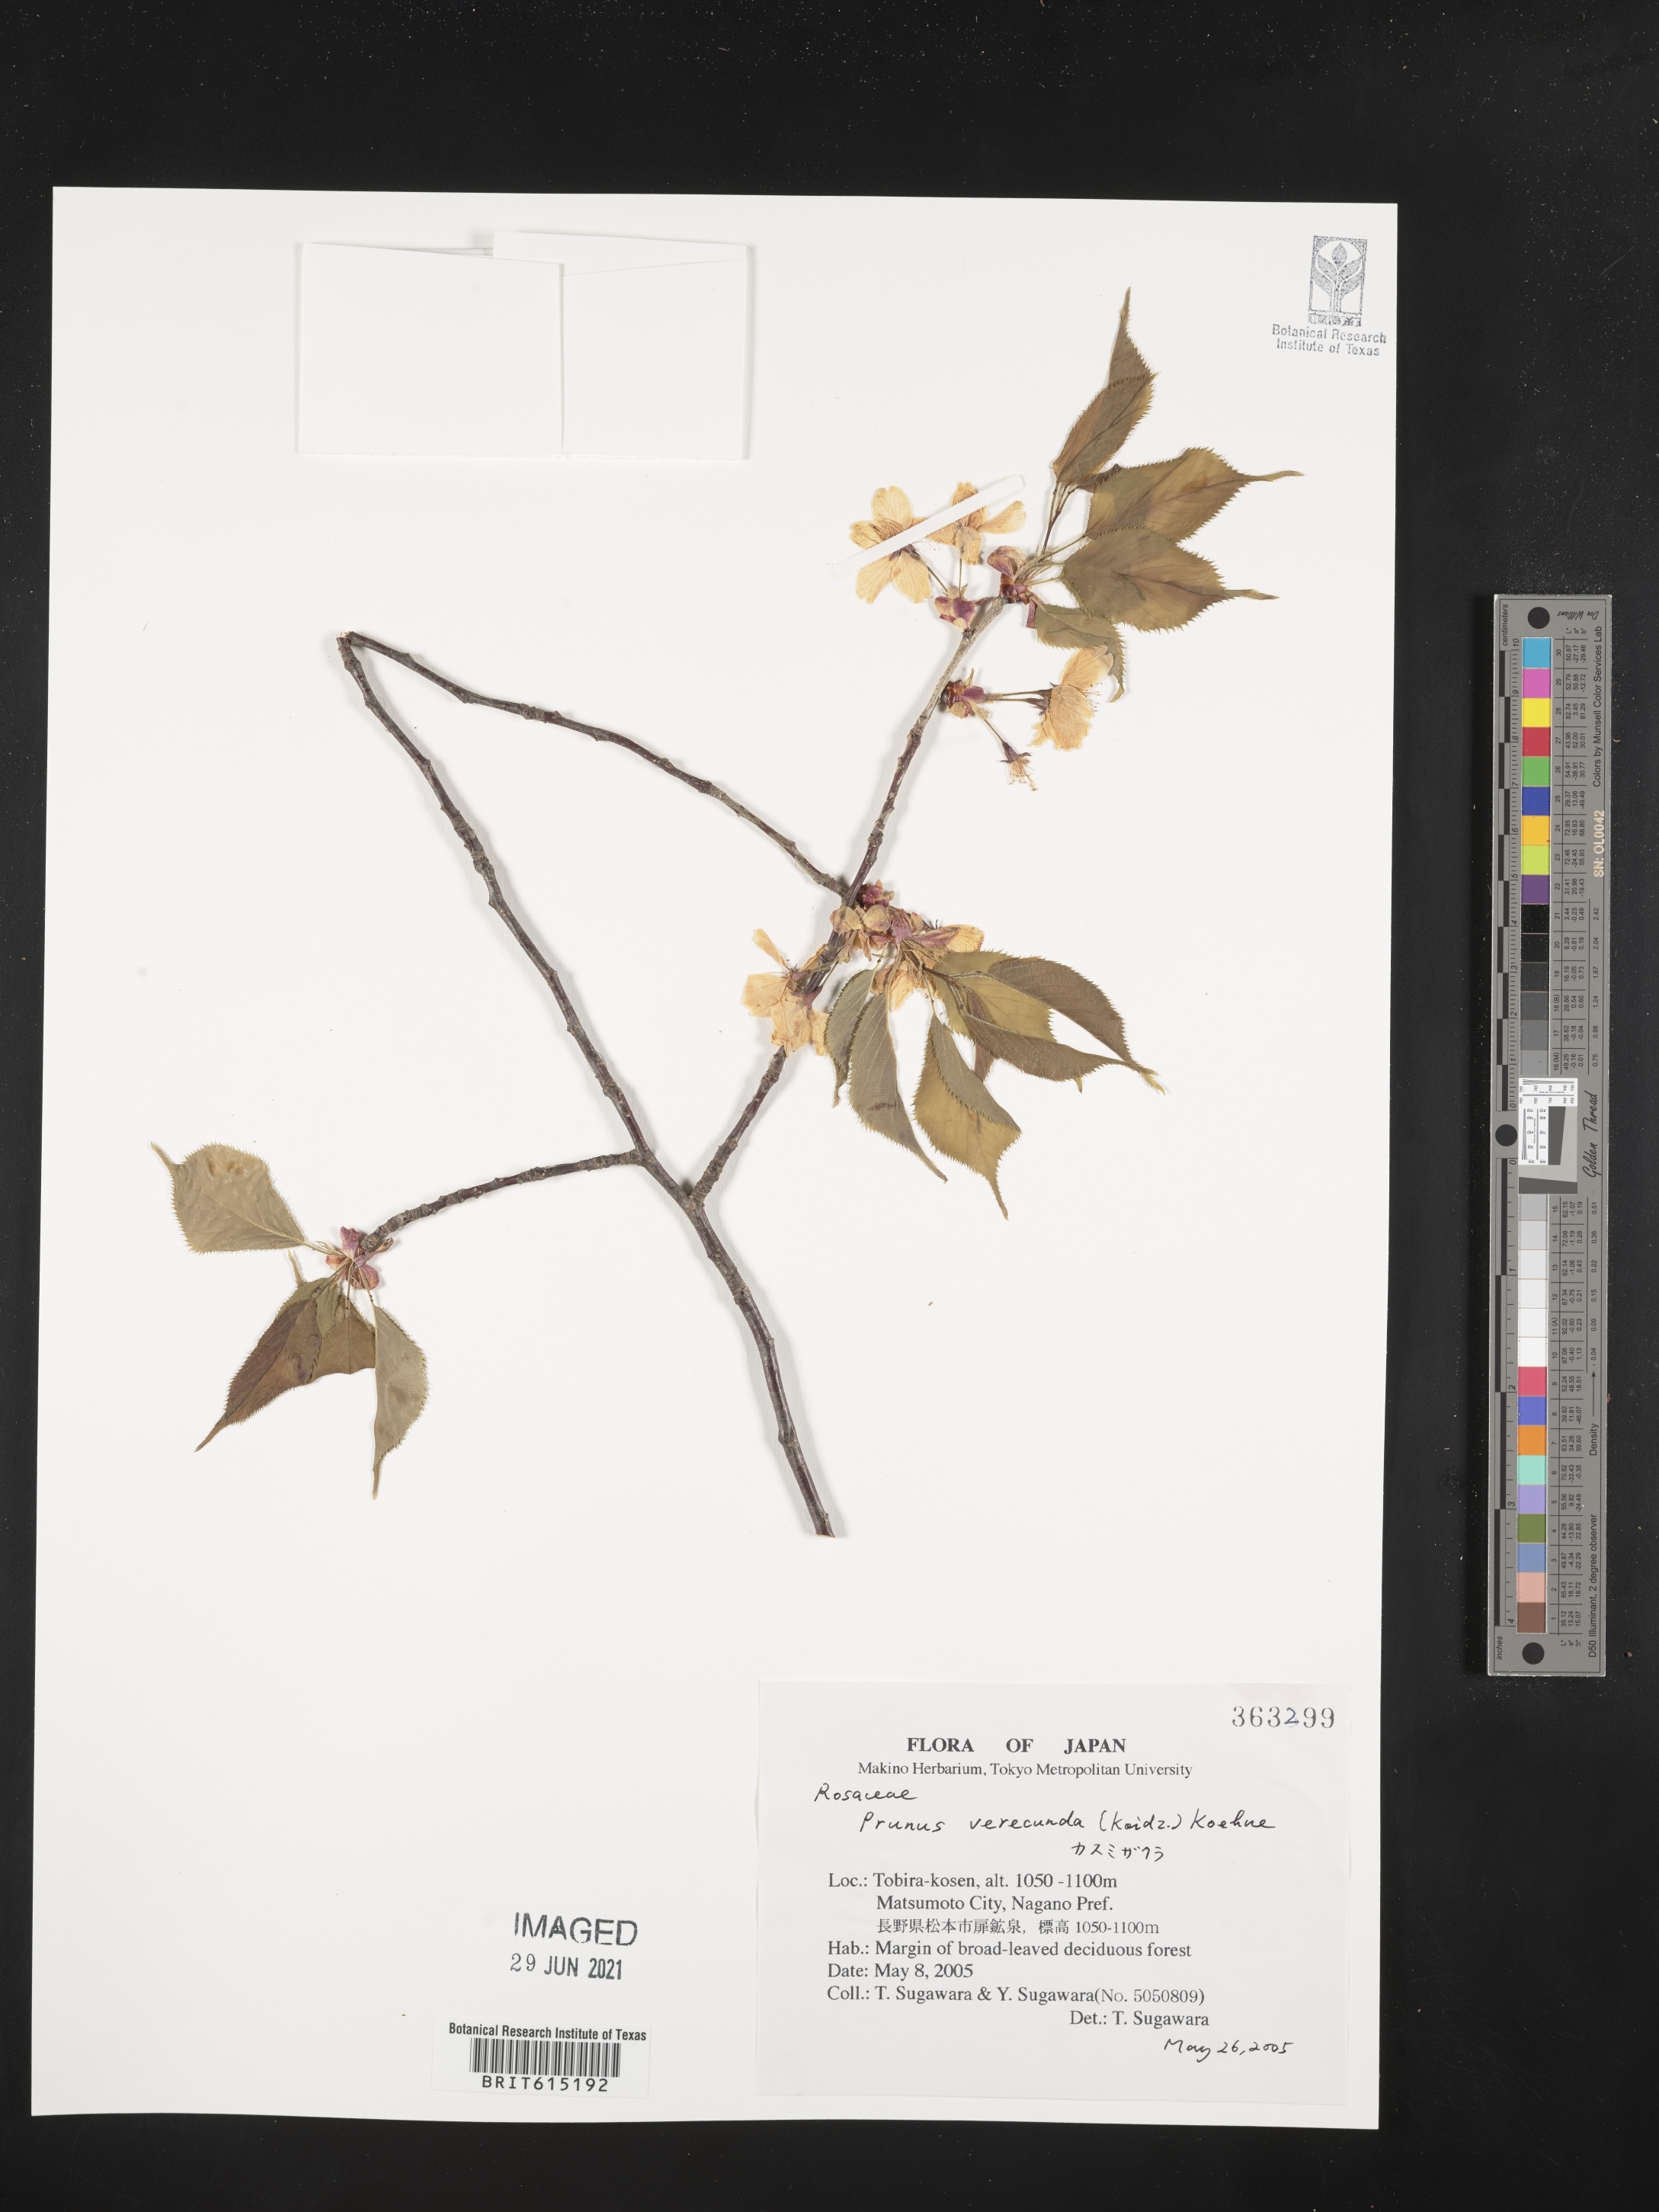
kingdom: Plantae
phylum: Tracheophyta
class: Magnoliopsida
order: Rosales
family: Rosaceae
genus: Prunus
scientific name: Prunus leveilleana
